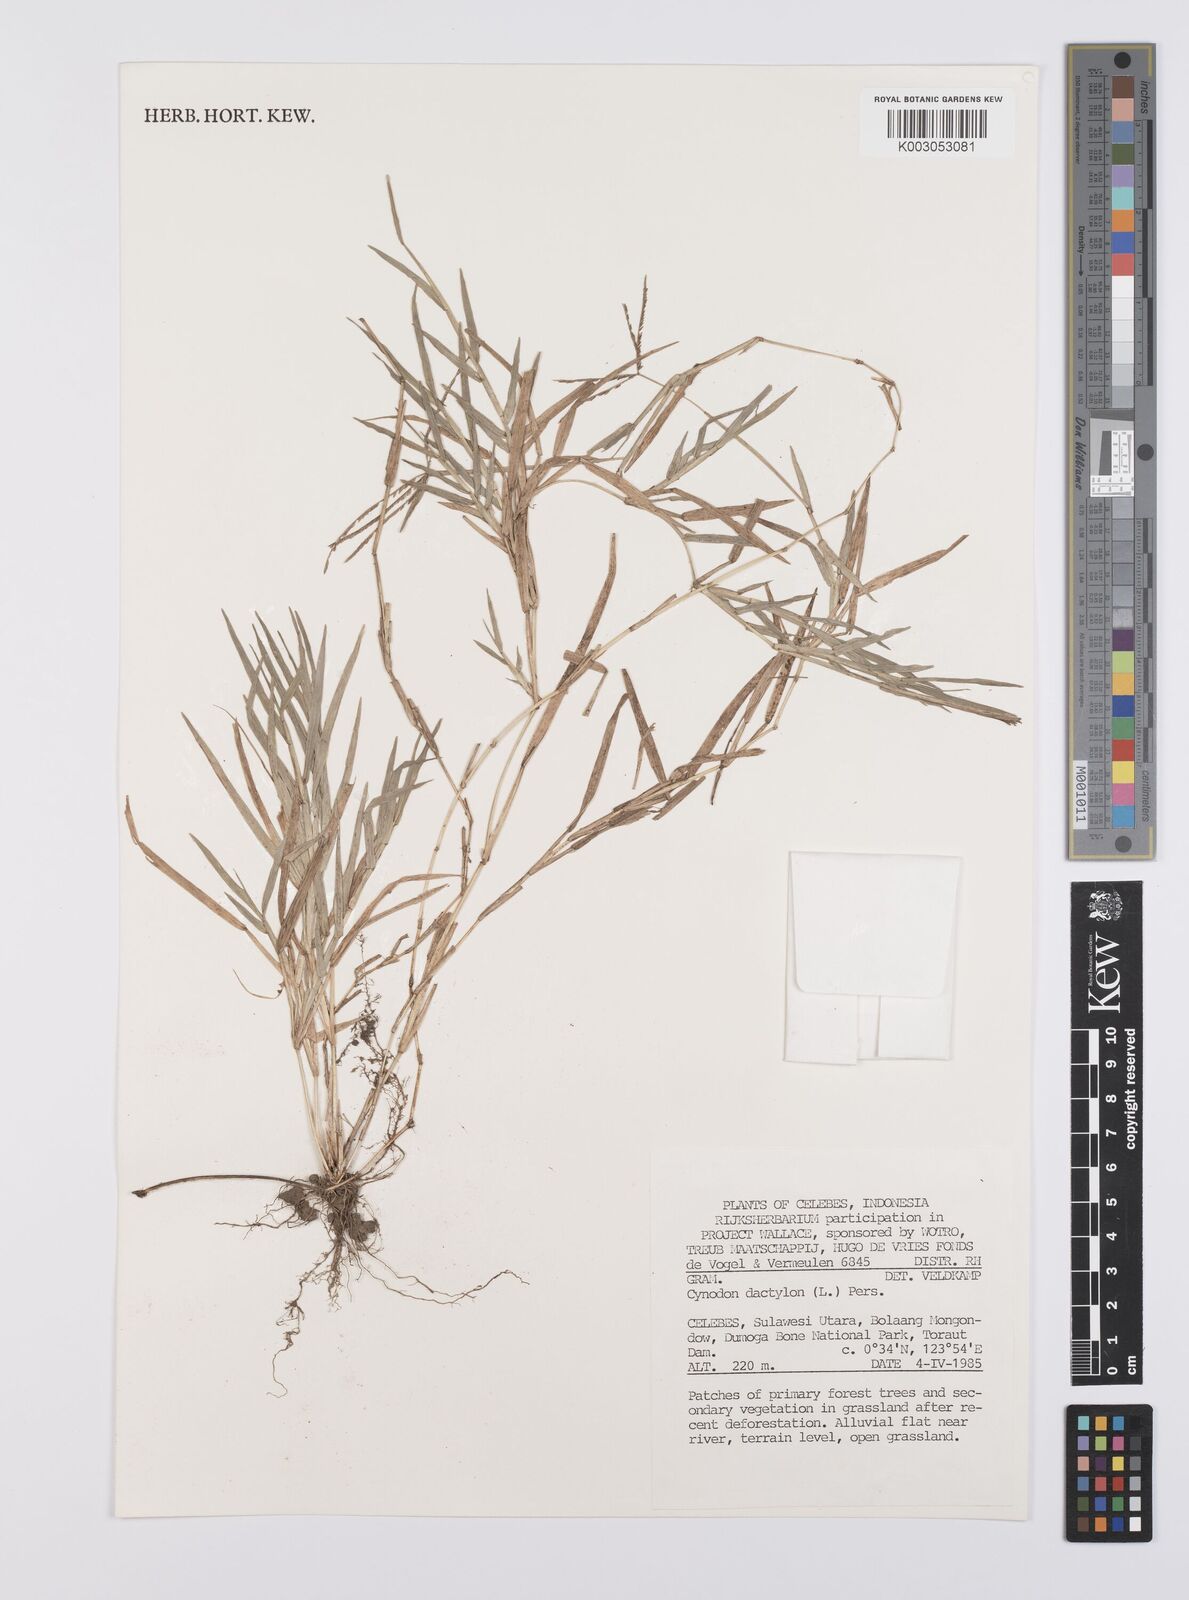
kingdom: Plantae
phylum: Tracheophyta
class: Liliopsida
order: Poales
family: Poaceae
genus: Cynodon
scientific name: Cynodon dactylon
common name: Bermuda grass
